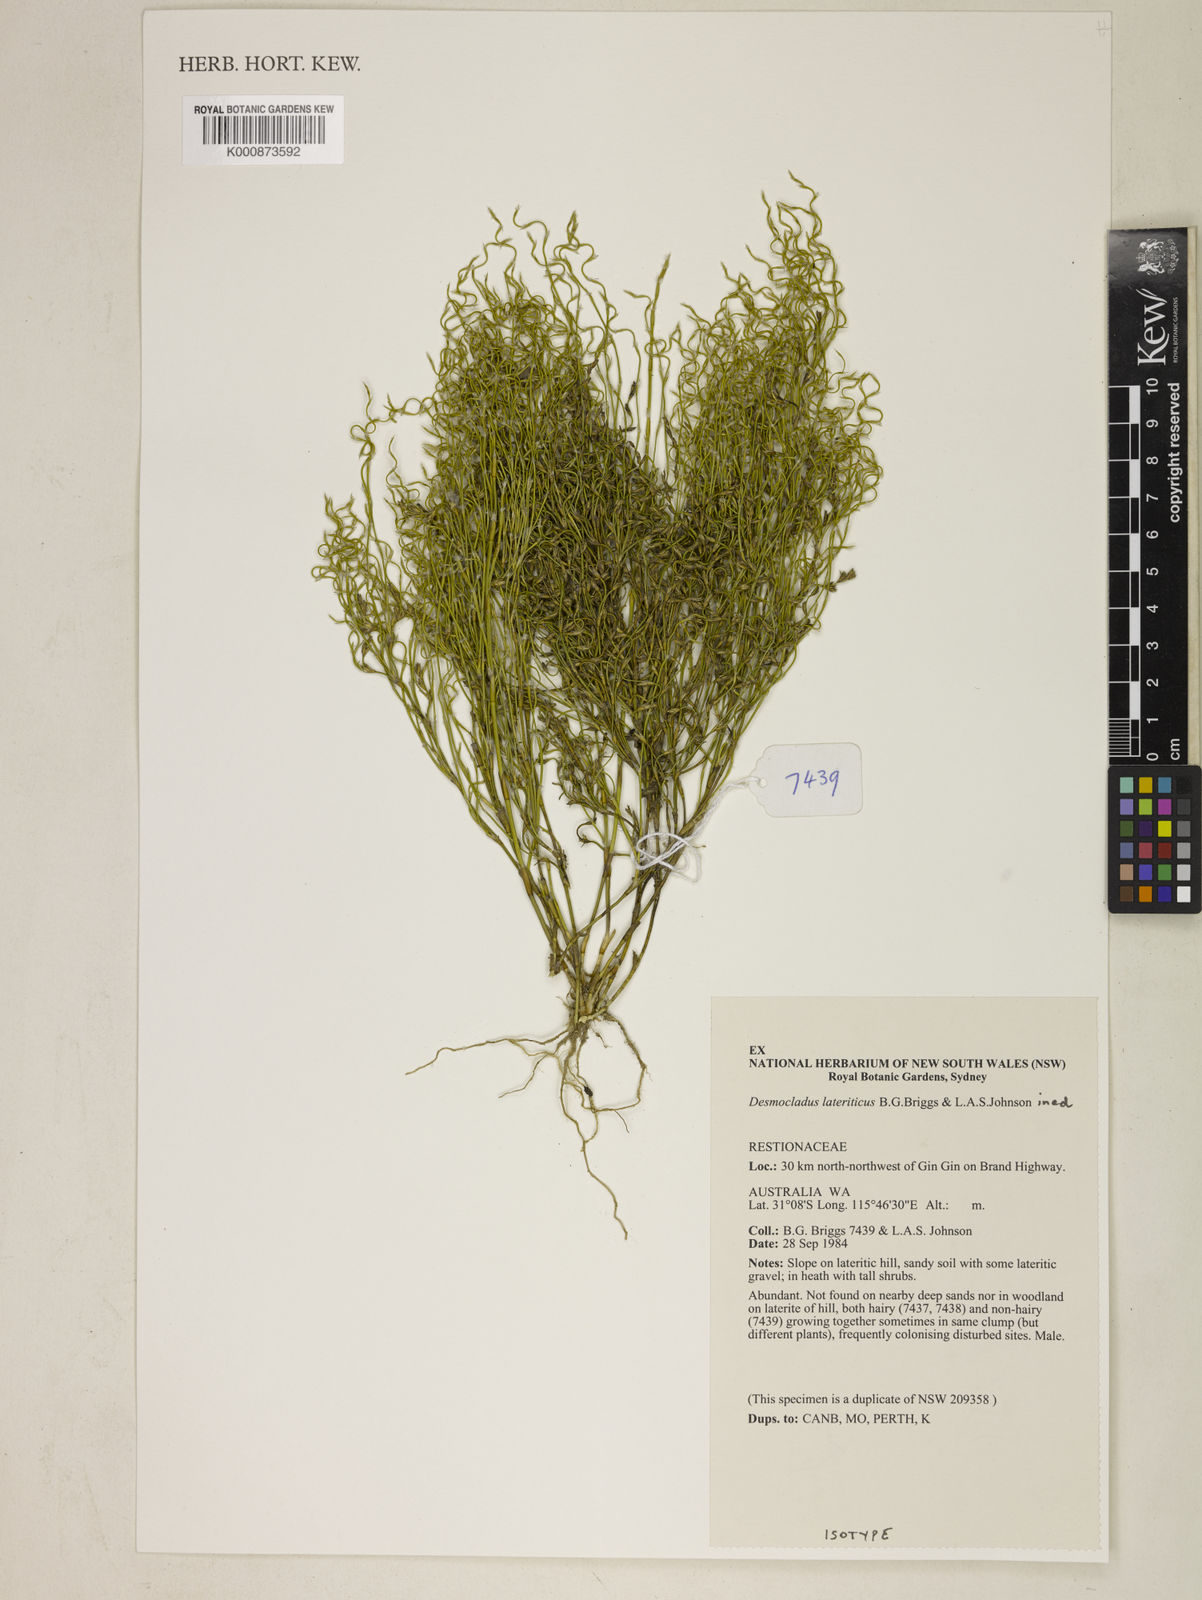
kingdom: Plantae
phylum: Tracheophyta
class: Liliopsida
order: Poales
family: Restionaceae
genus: Desmocladus
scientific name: Desmocladus lateriticus
